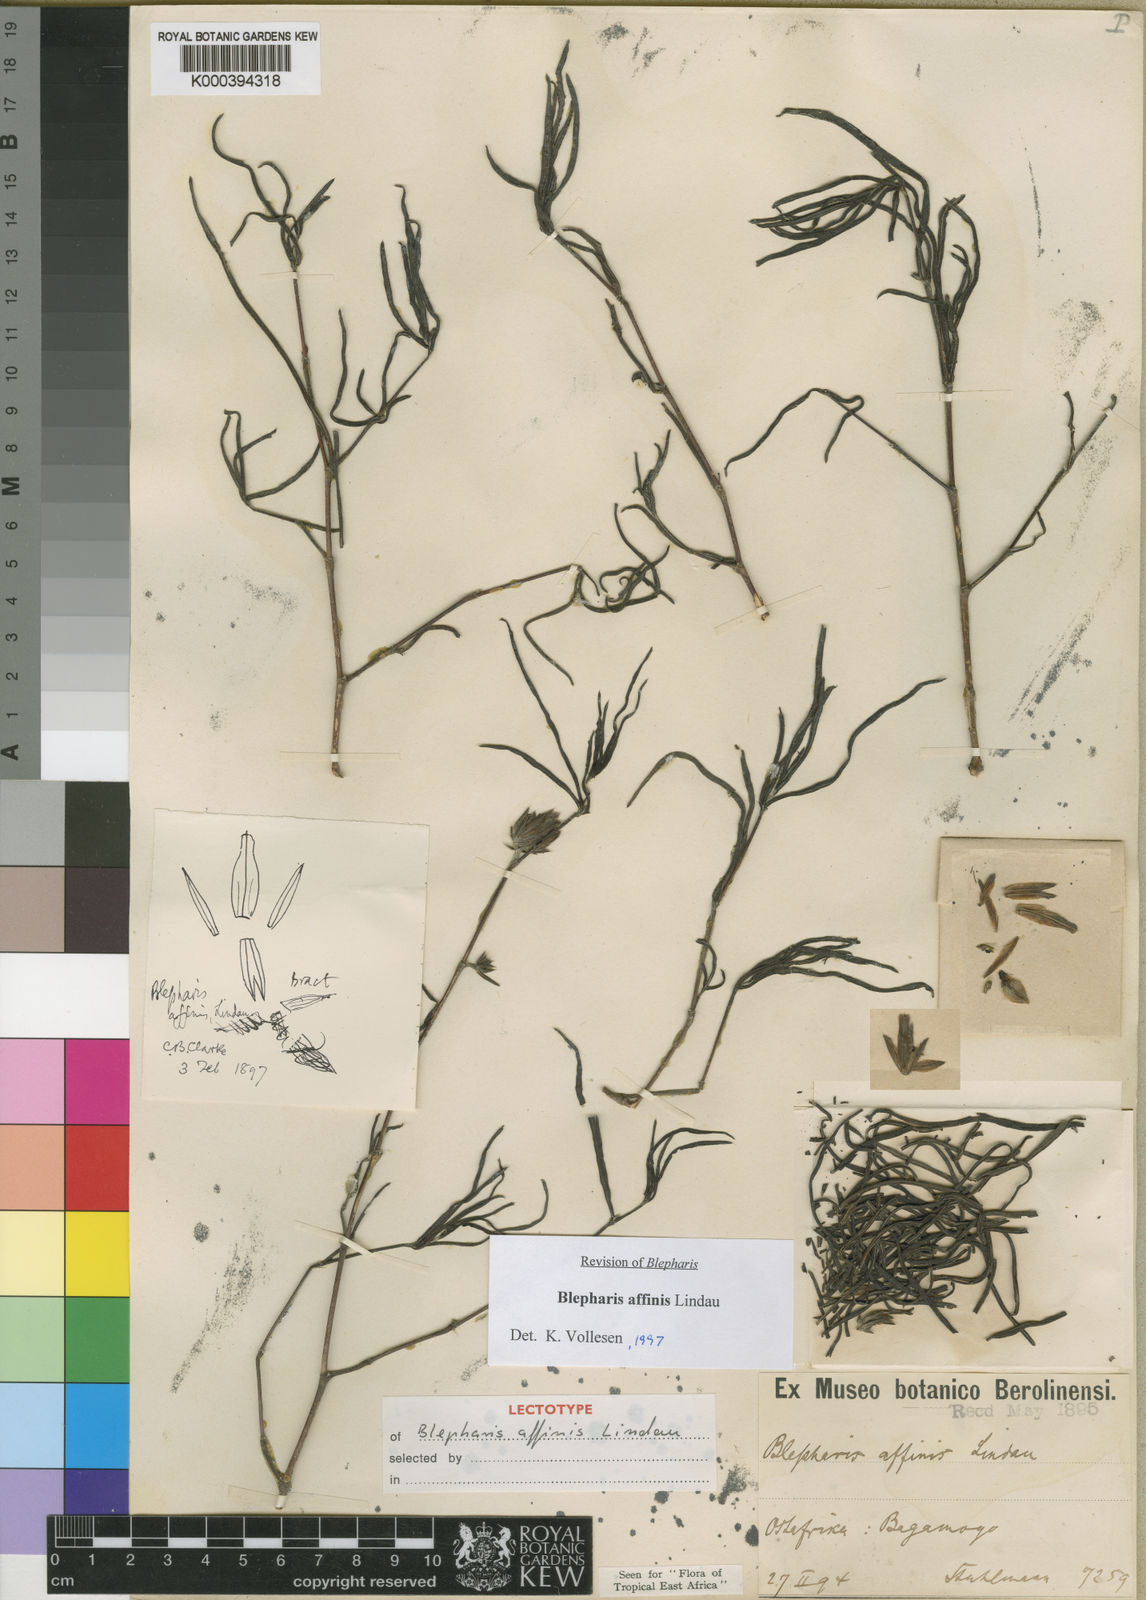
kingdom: Plantae
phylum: Tracheophyta
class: Magnoliopsida
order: Lamiales
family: Acanthaceae
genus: Blepharis
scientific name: Blepharis affinis
